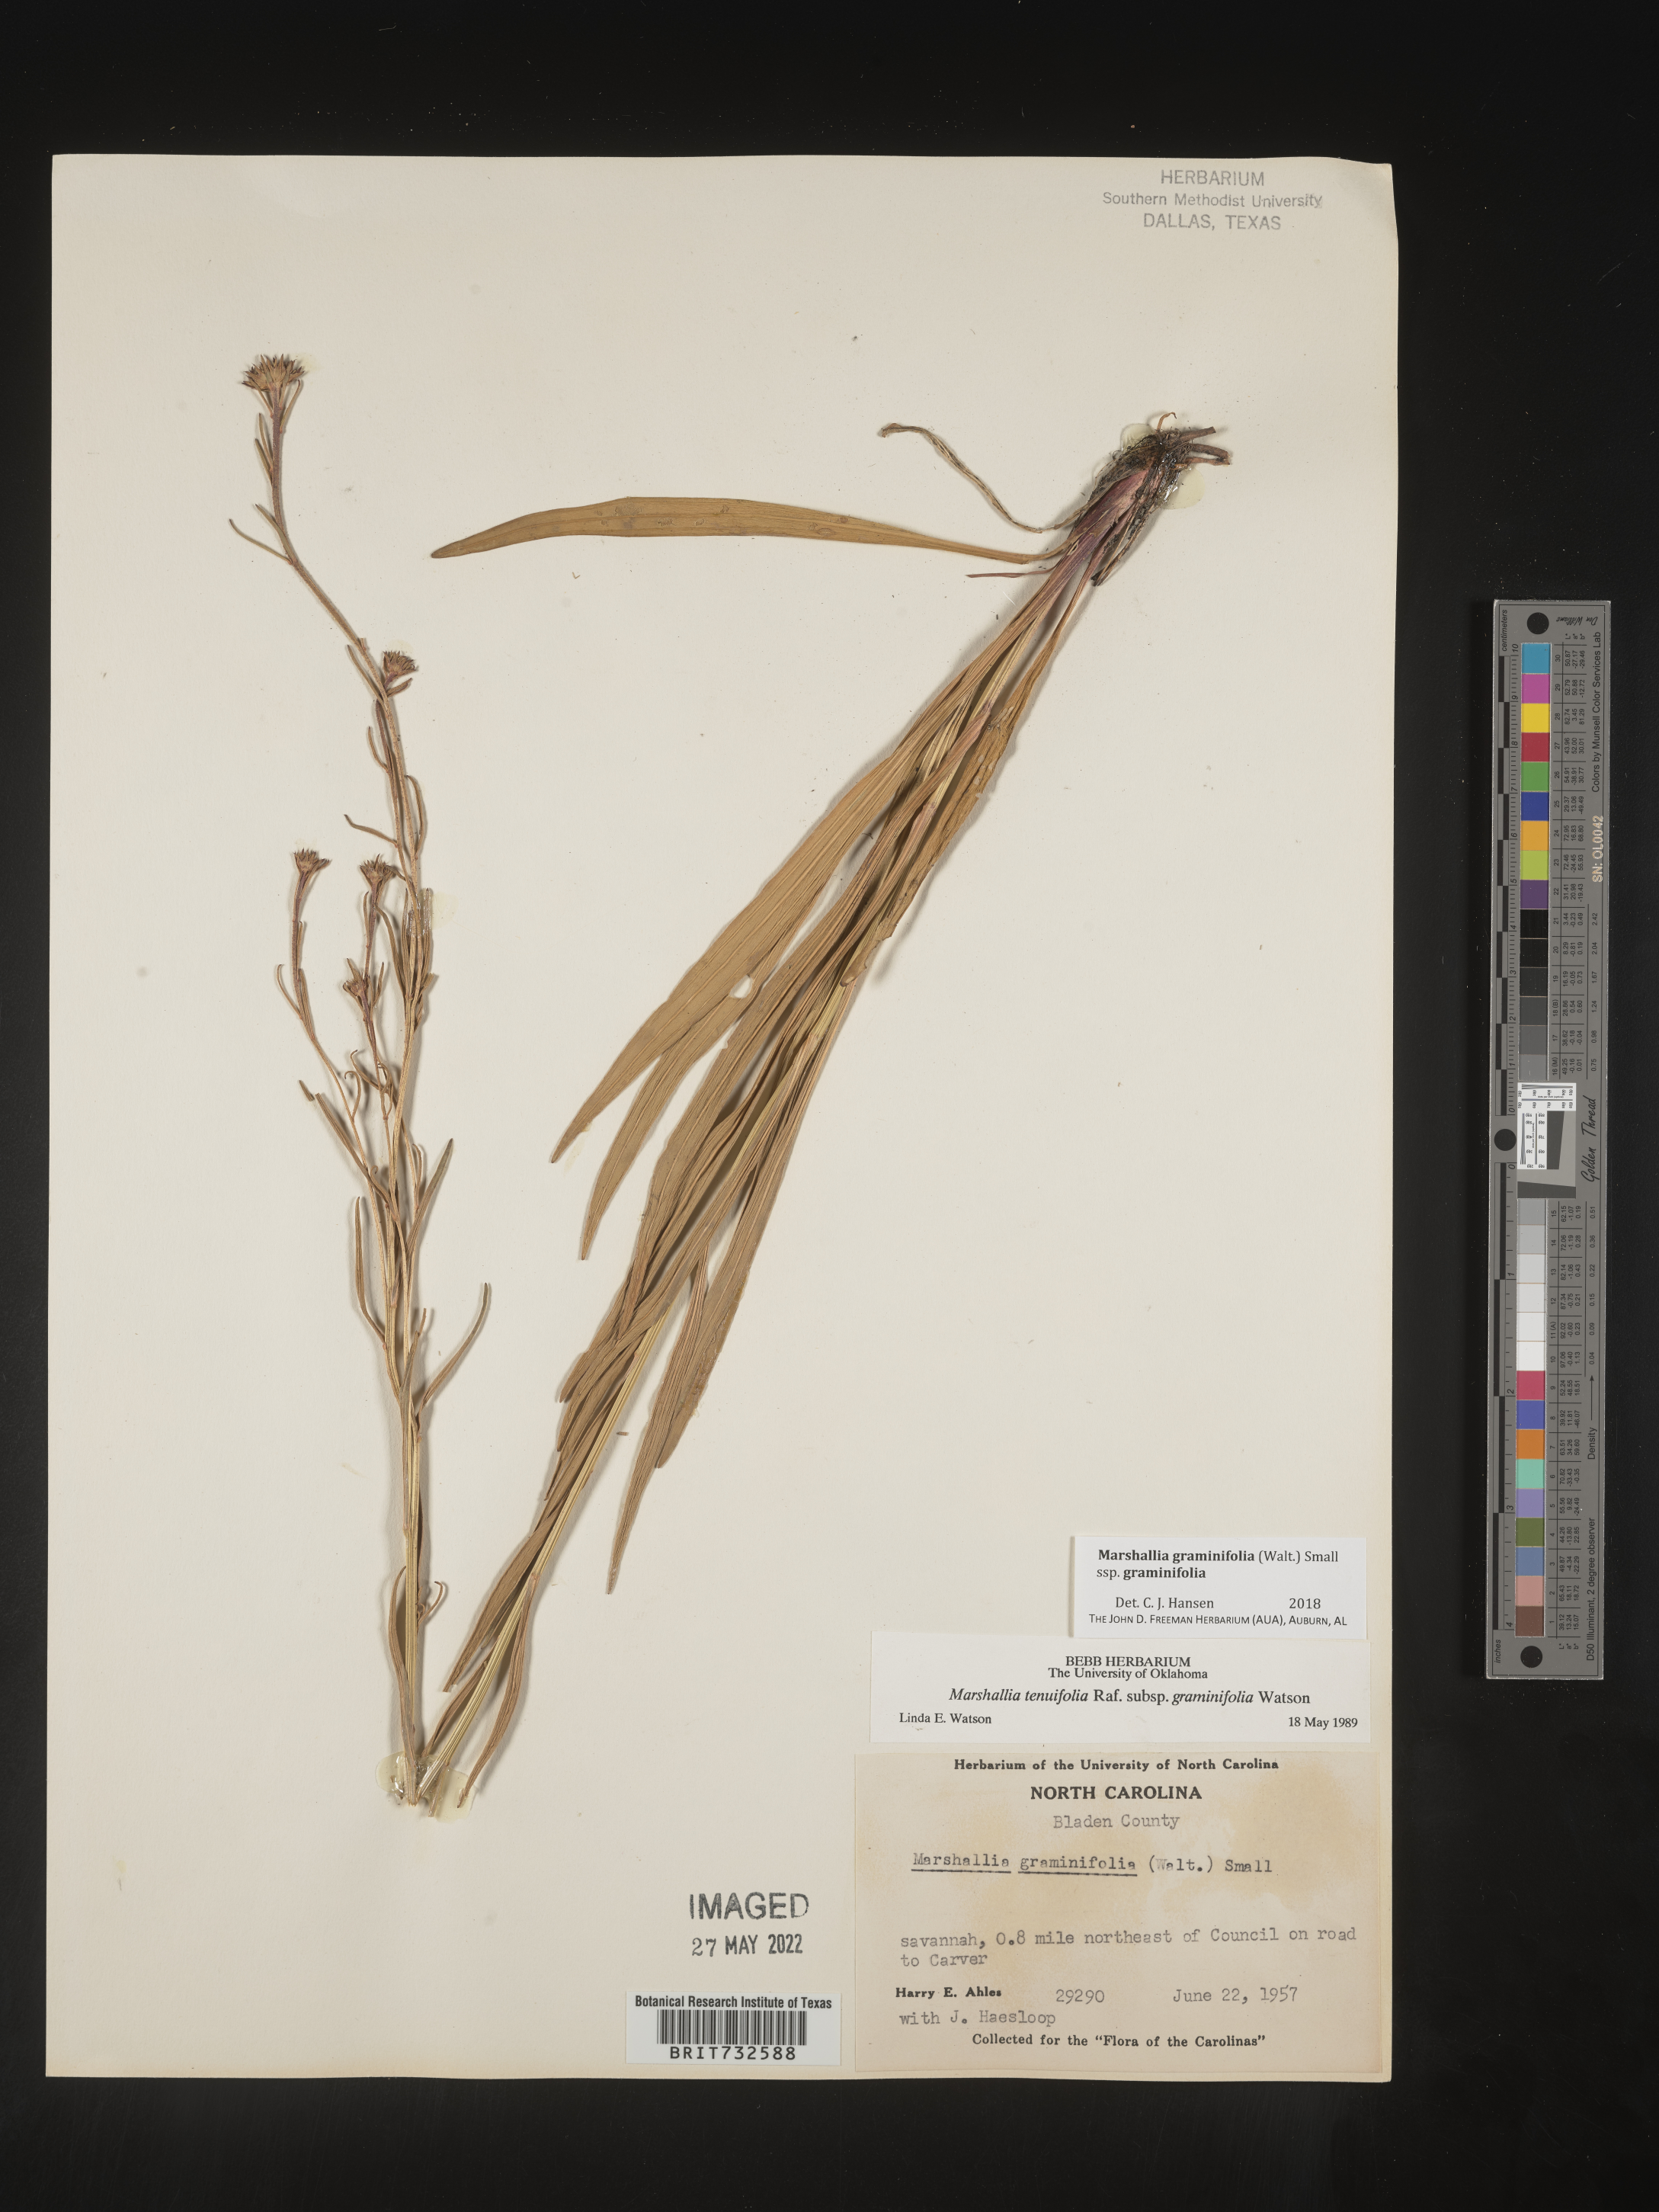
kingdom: Plantae
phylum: Tracheophyta
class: Magnoliopsida
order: Asterales
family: Asteraceae
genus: Marshallia
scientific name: Marshallia graminifolia
